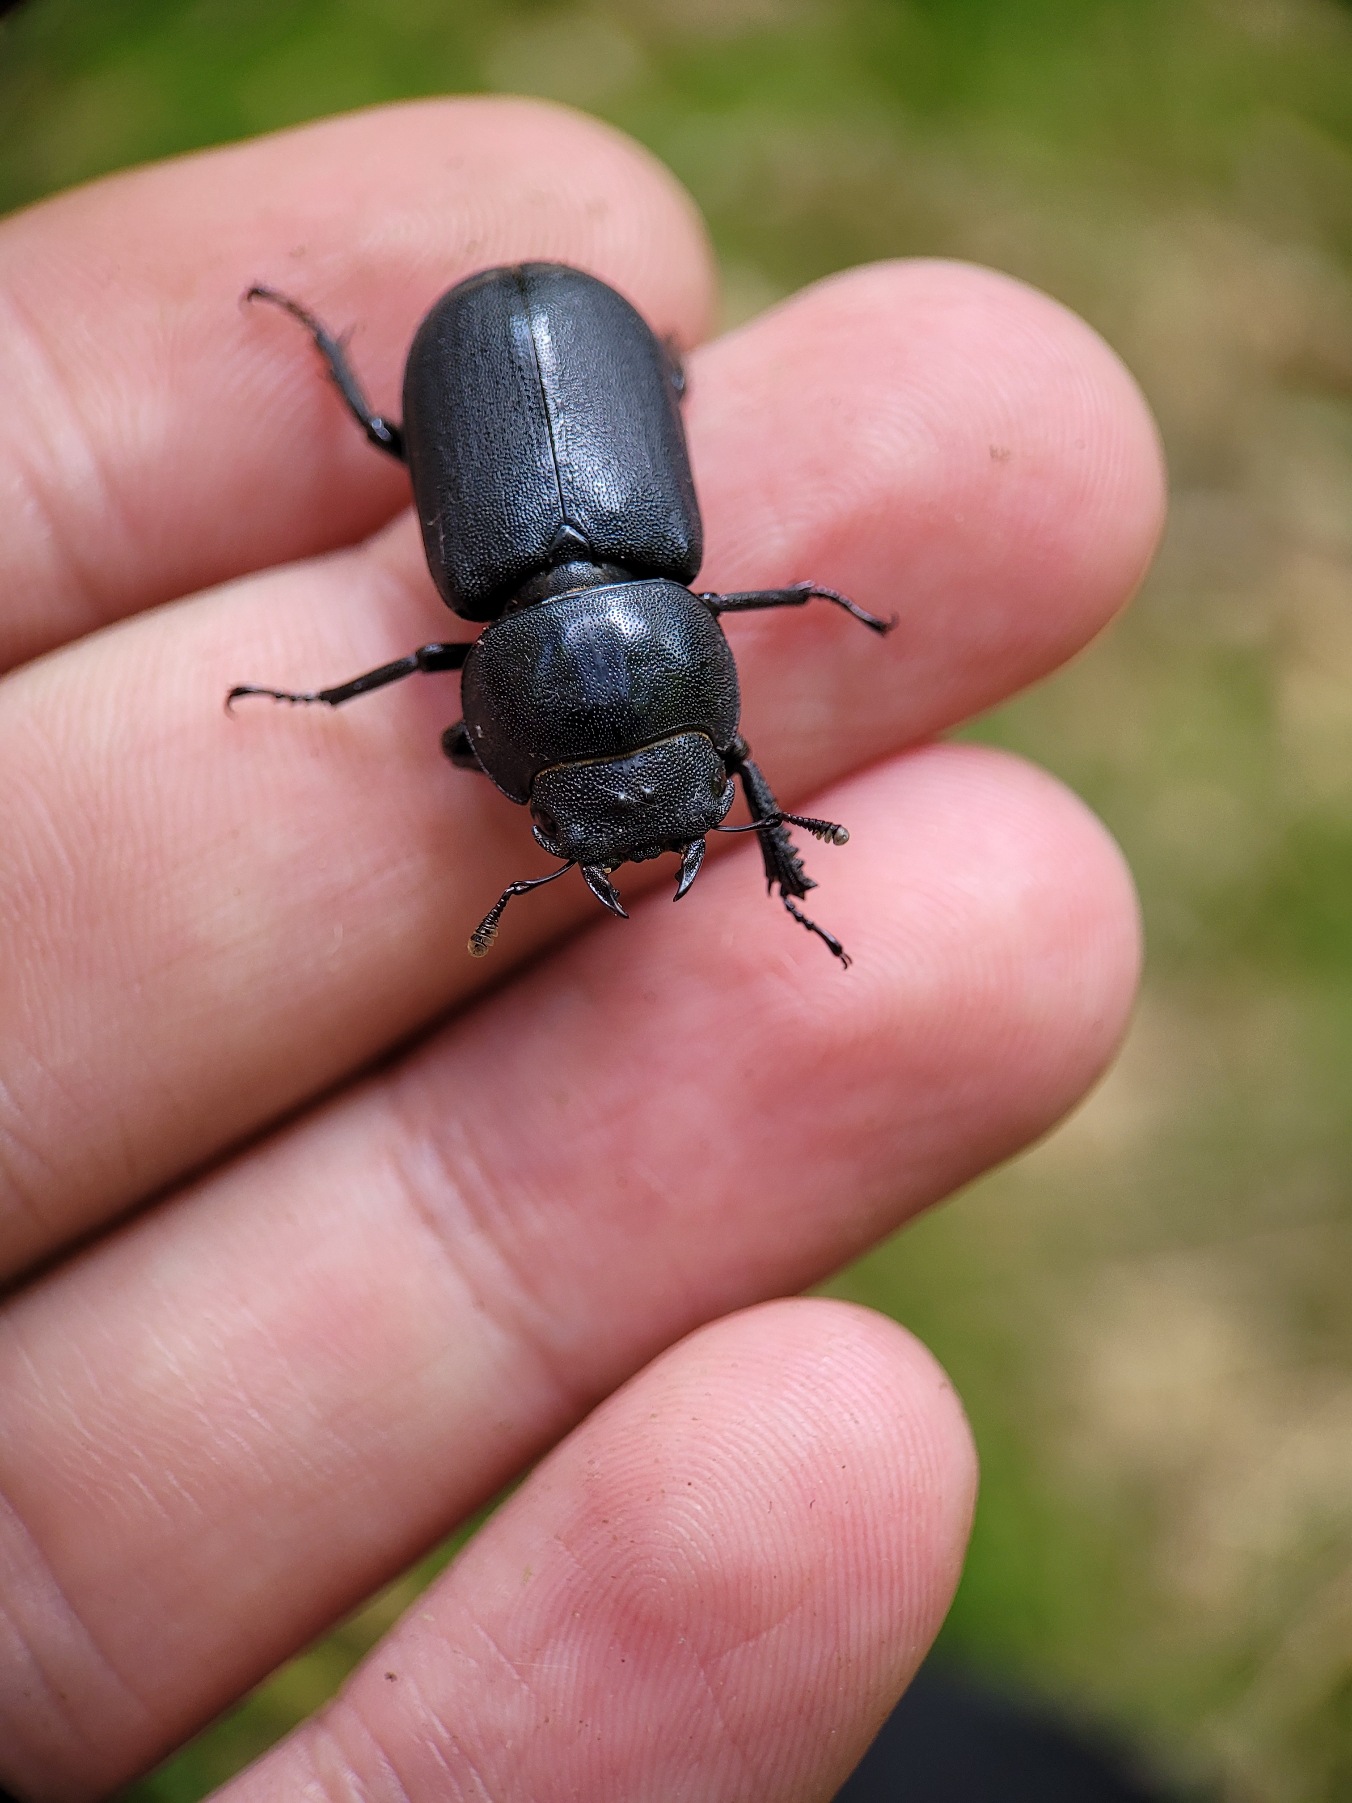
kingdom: Animalia
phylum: Arthropoda
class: Insecta
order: Coleoptera
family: Lucanidae
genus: Dorcus
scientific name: Dorcus parallelipipedus
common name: Bøghjort
